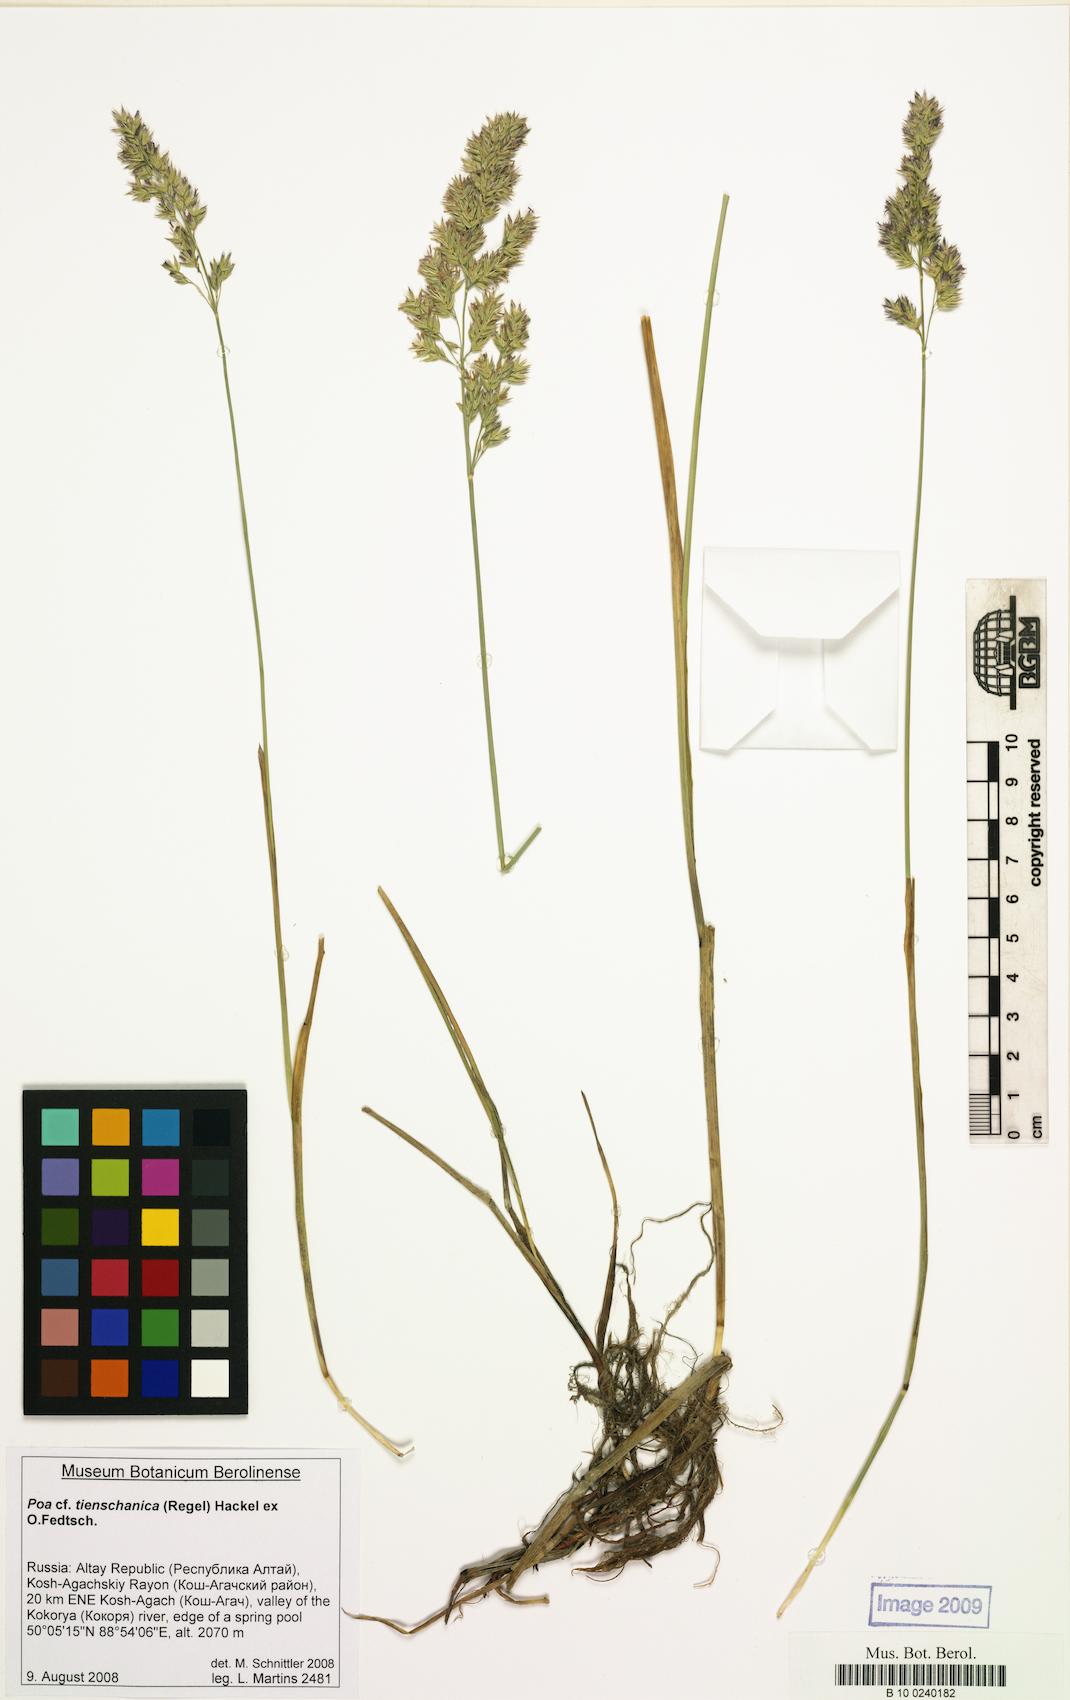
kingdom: Plantae
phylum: Tracheophyta
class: Liliopsida
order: Poales
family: Poaceae
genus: Poa
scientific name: Poa tianschanica
